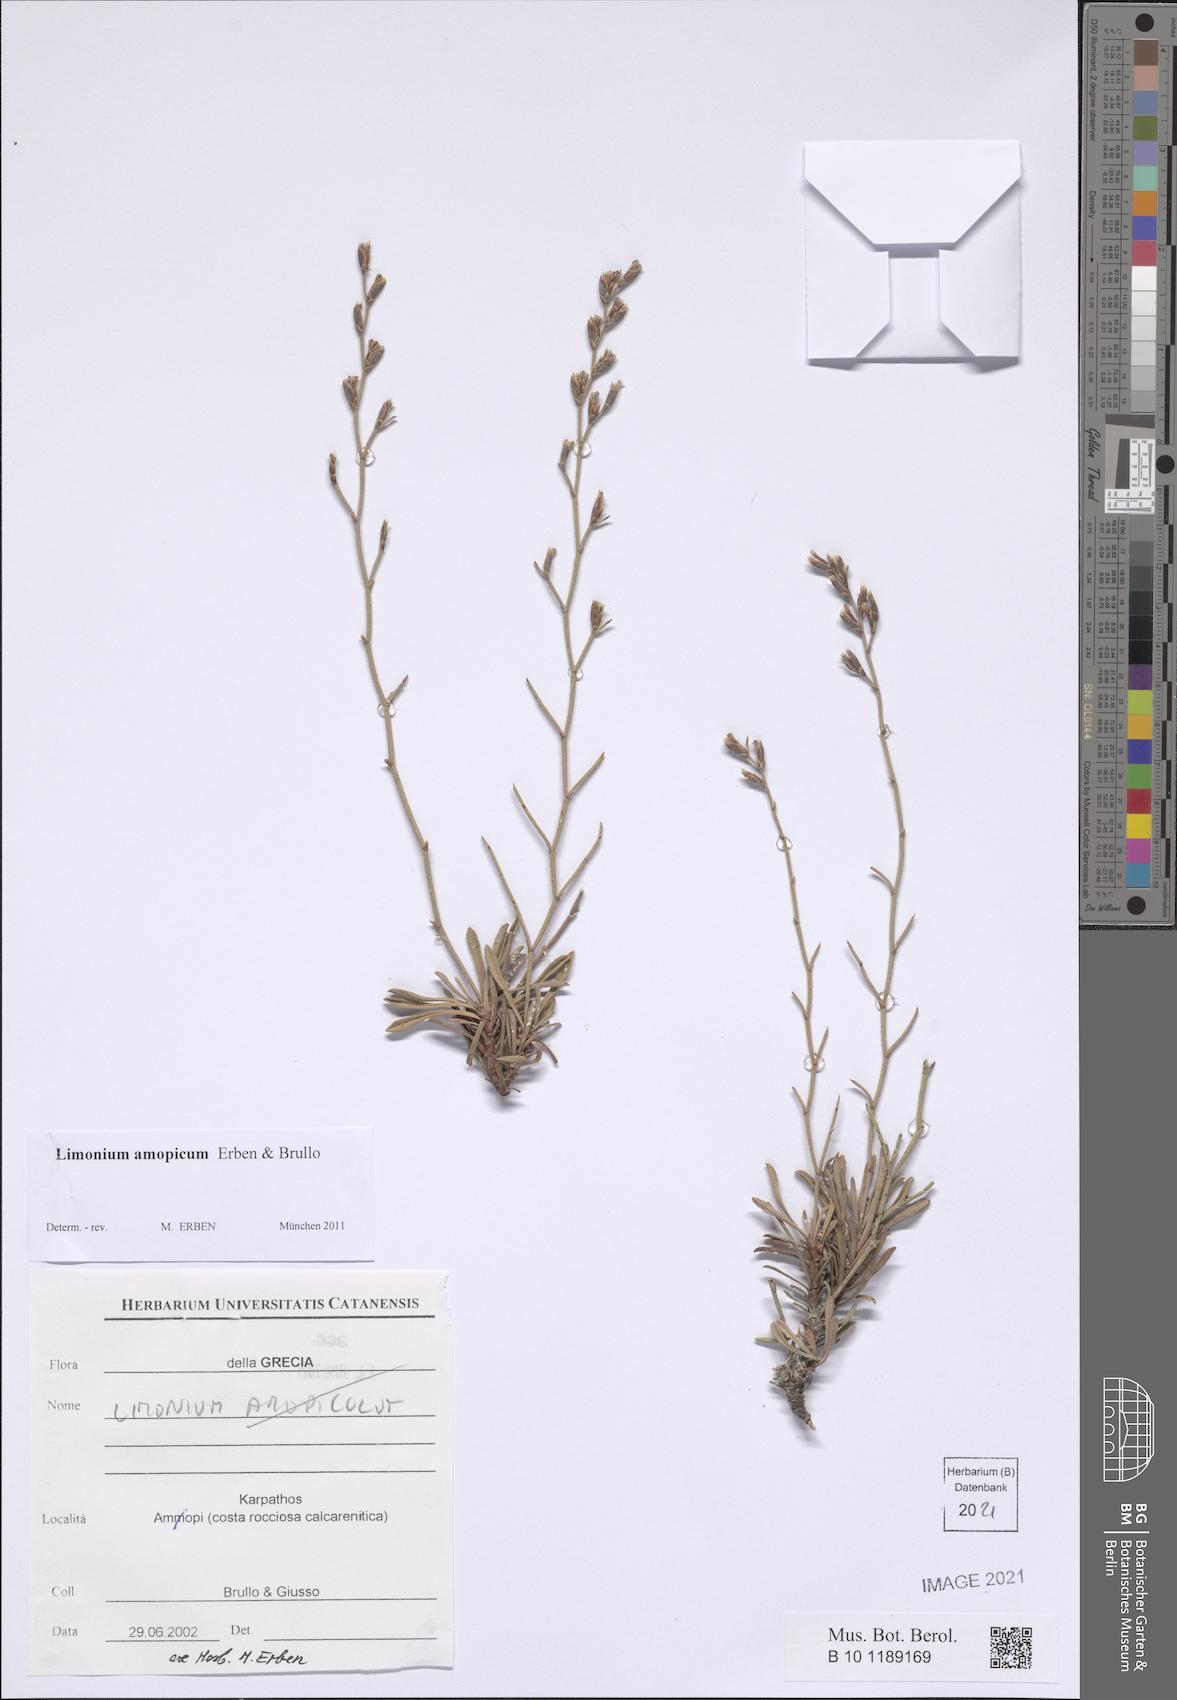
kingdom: Plantae
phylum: Tracheophyta
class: Magnoliopsida
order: Caryophyllales
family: Plumbaginaceae
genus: Limonium
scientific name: Limonium amopicum
